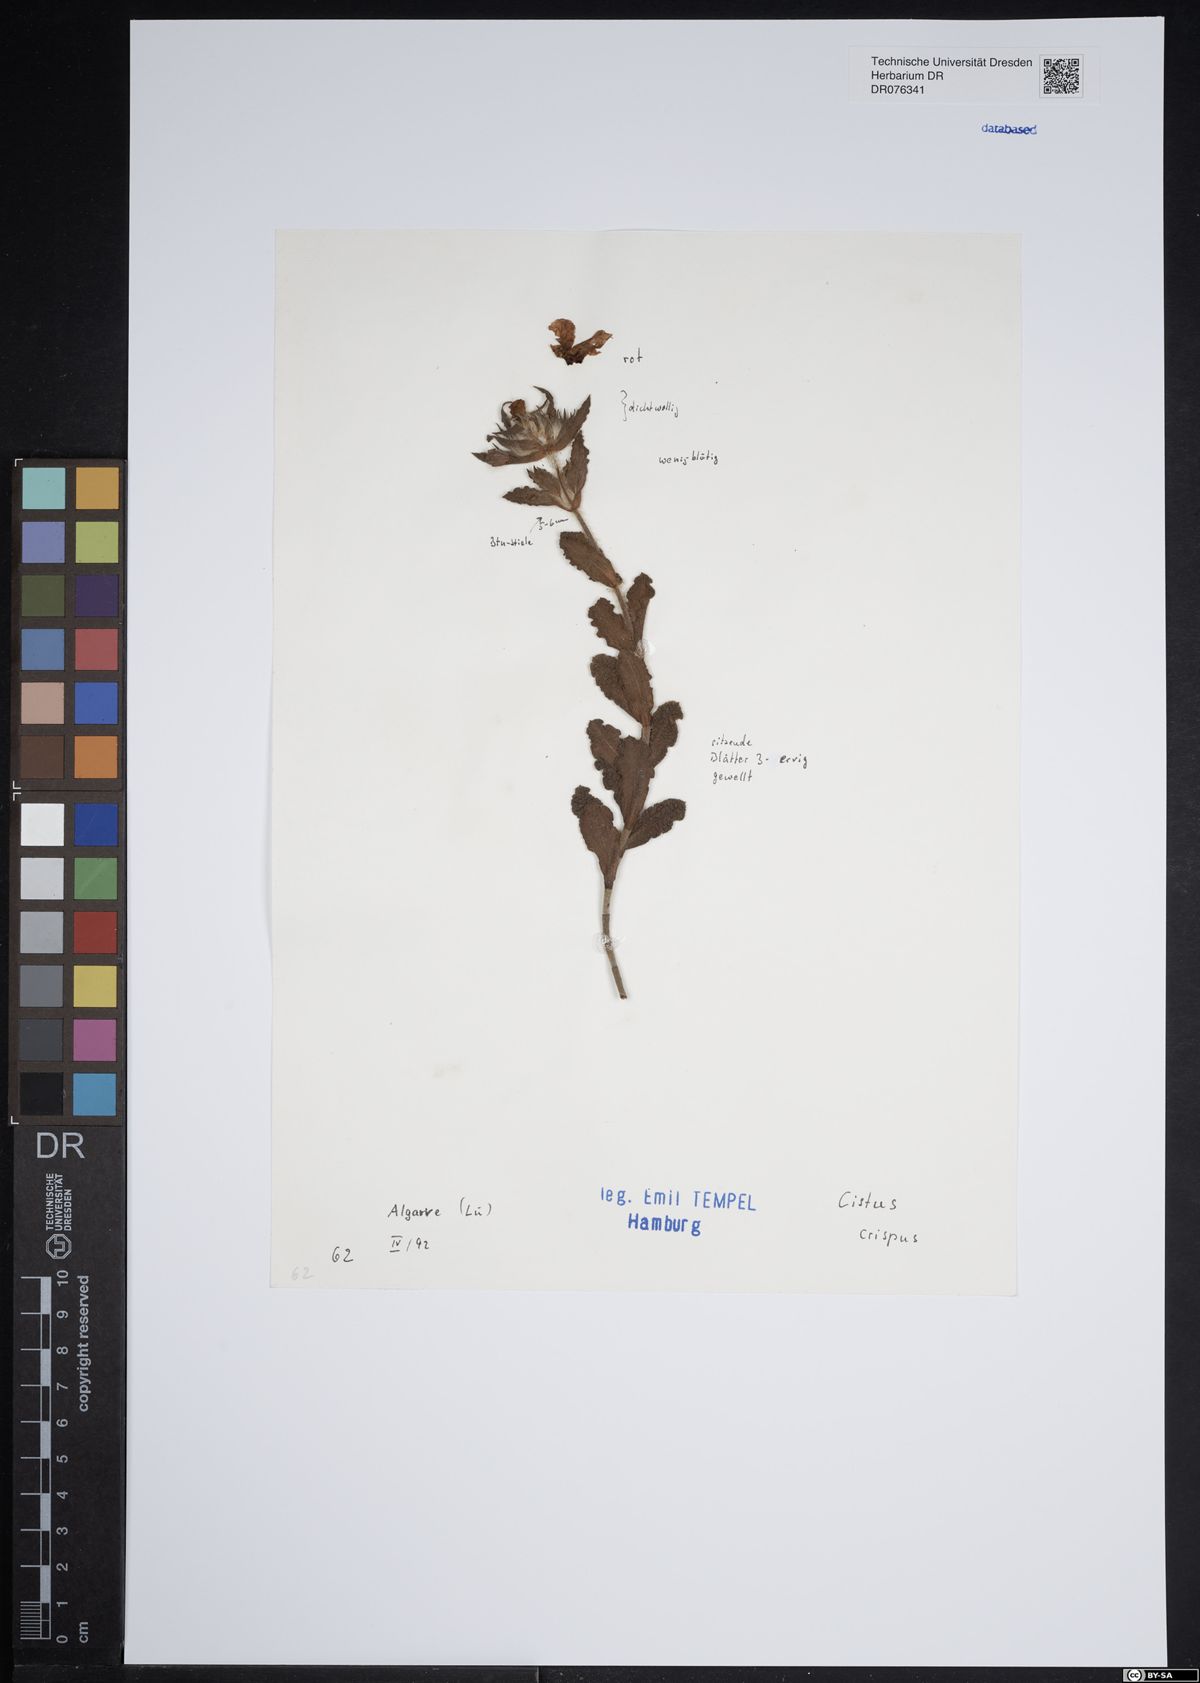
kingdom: Plantae
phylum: Tracheophyta
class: Magnoliopsida
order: Malvales
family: Cistaceae
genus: Cistus
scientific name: Cistus crispus
